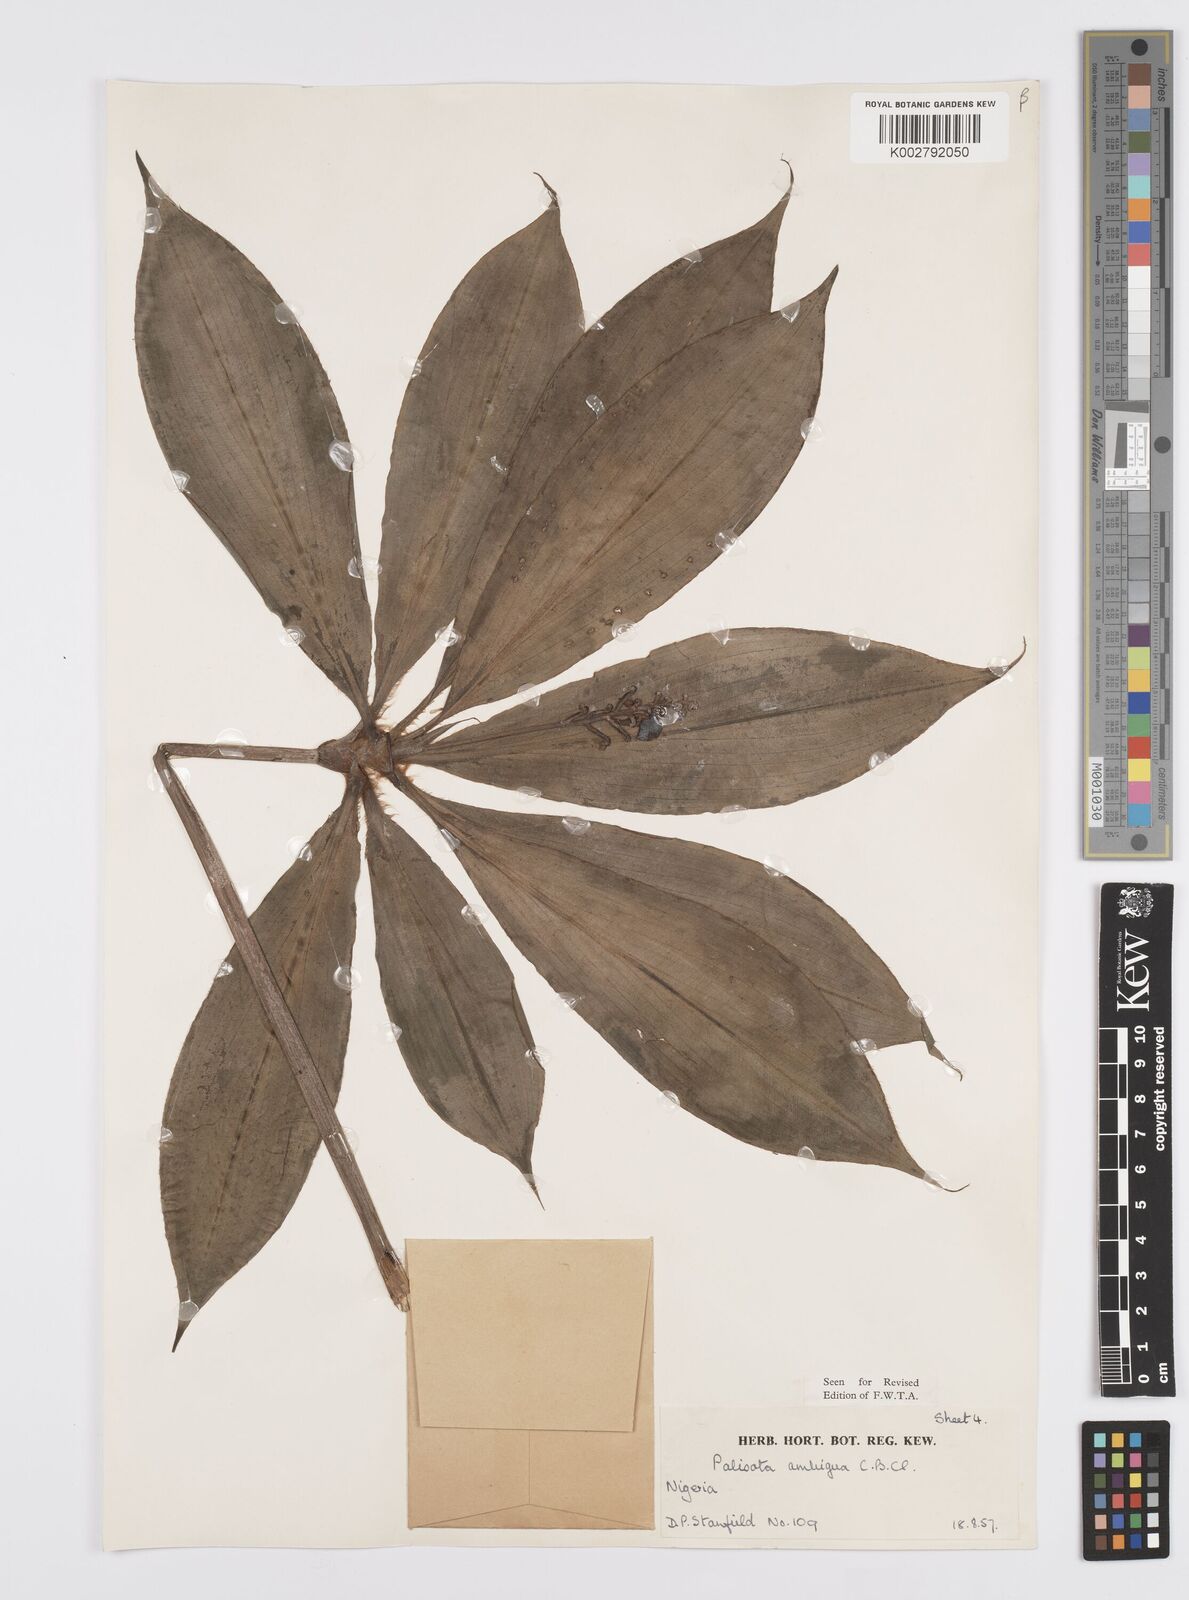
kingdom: Plantae
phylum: Tracheophyta
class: Liliopsida
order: Commelinales
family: Commelinaceae
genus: Palisota
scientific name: Palisota ambigua
